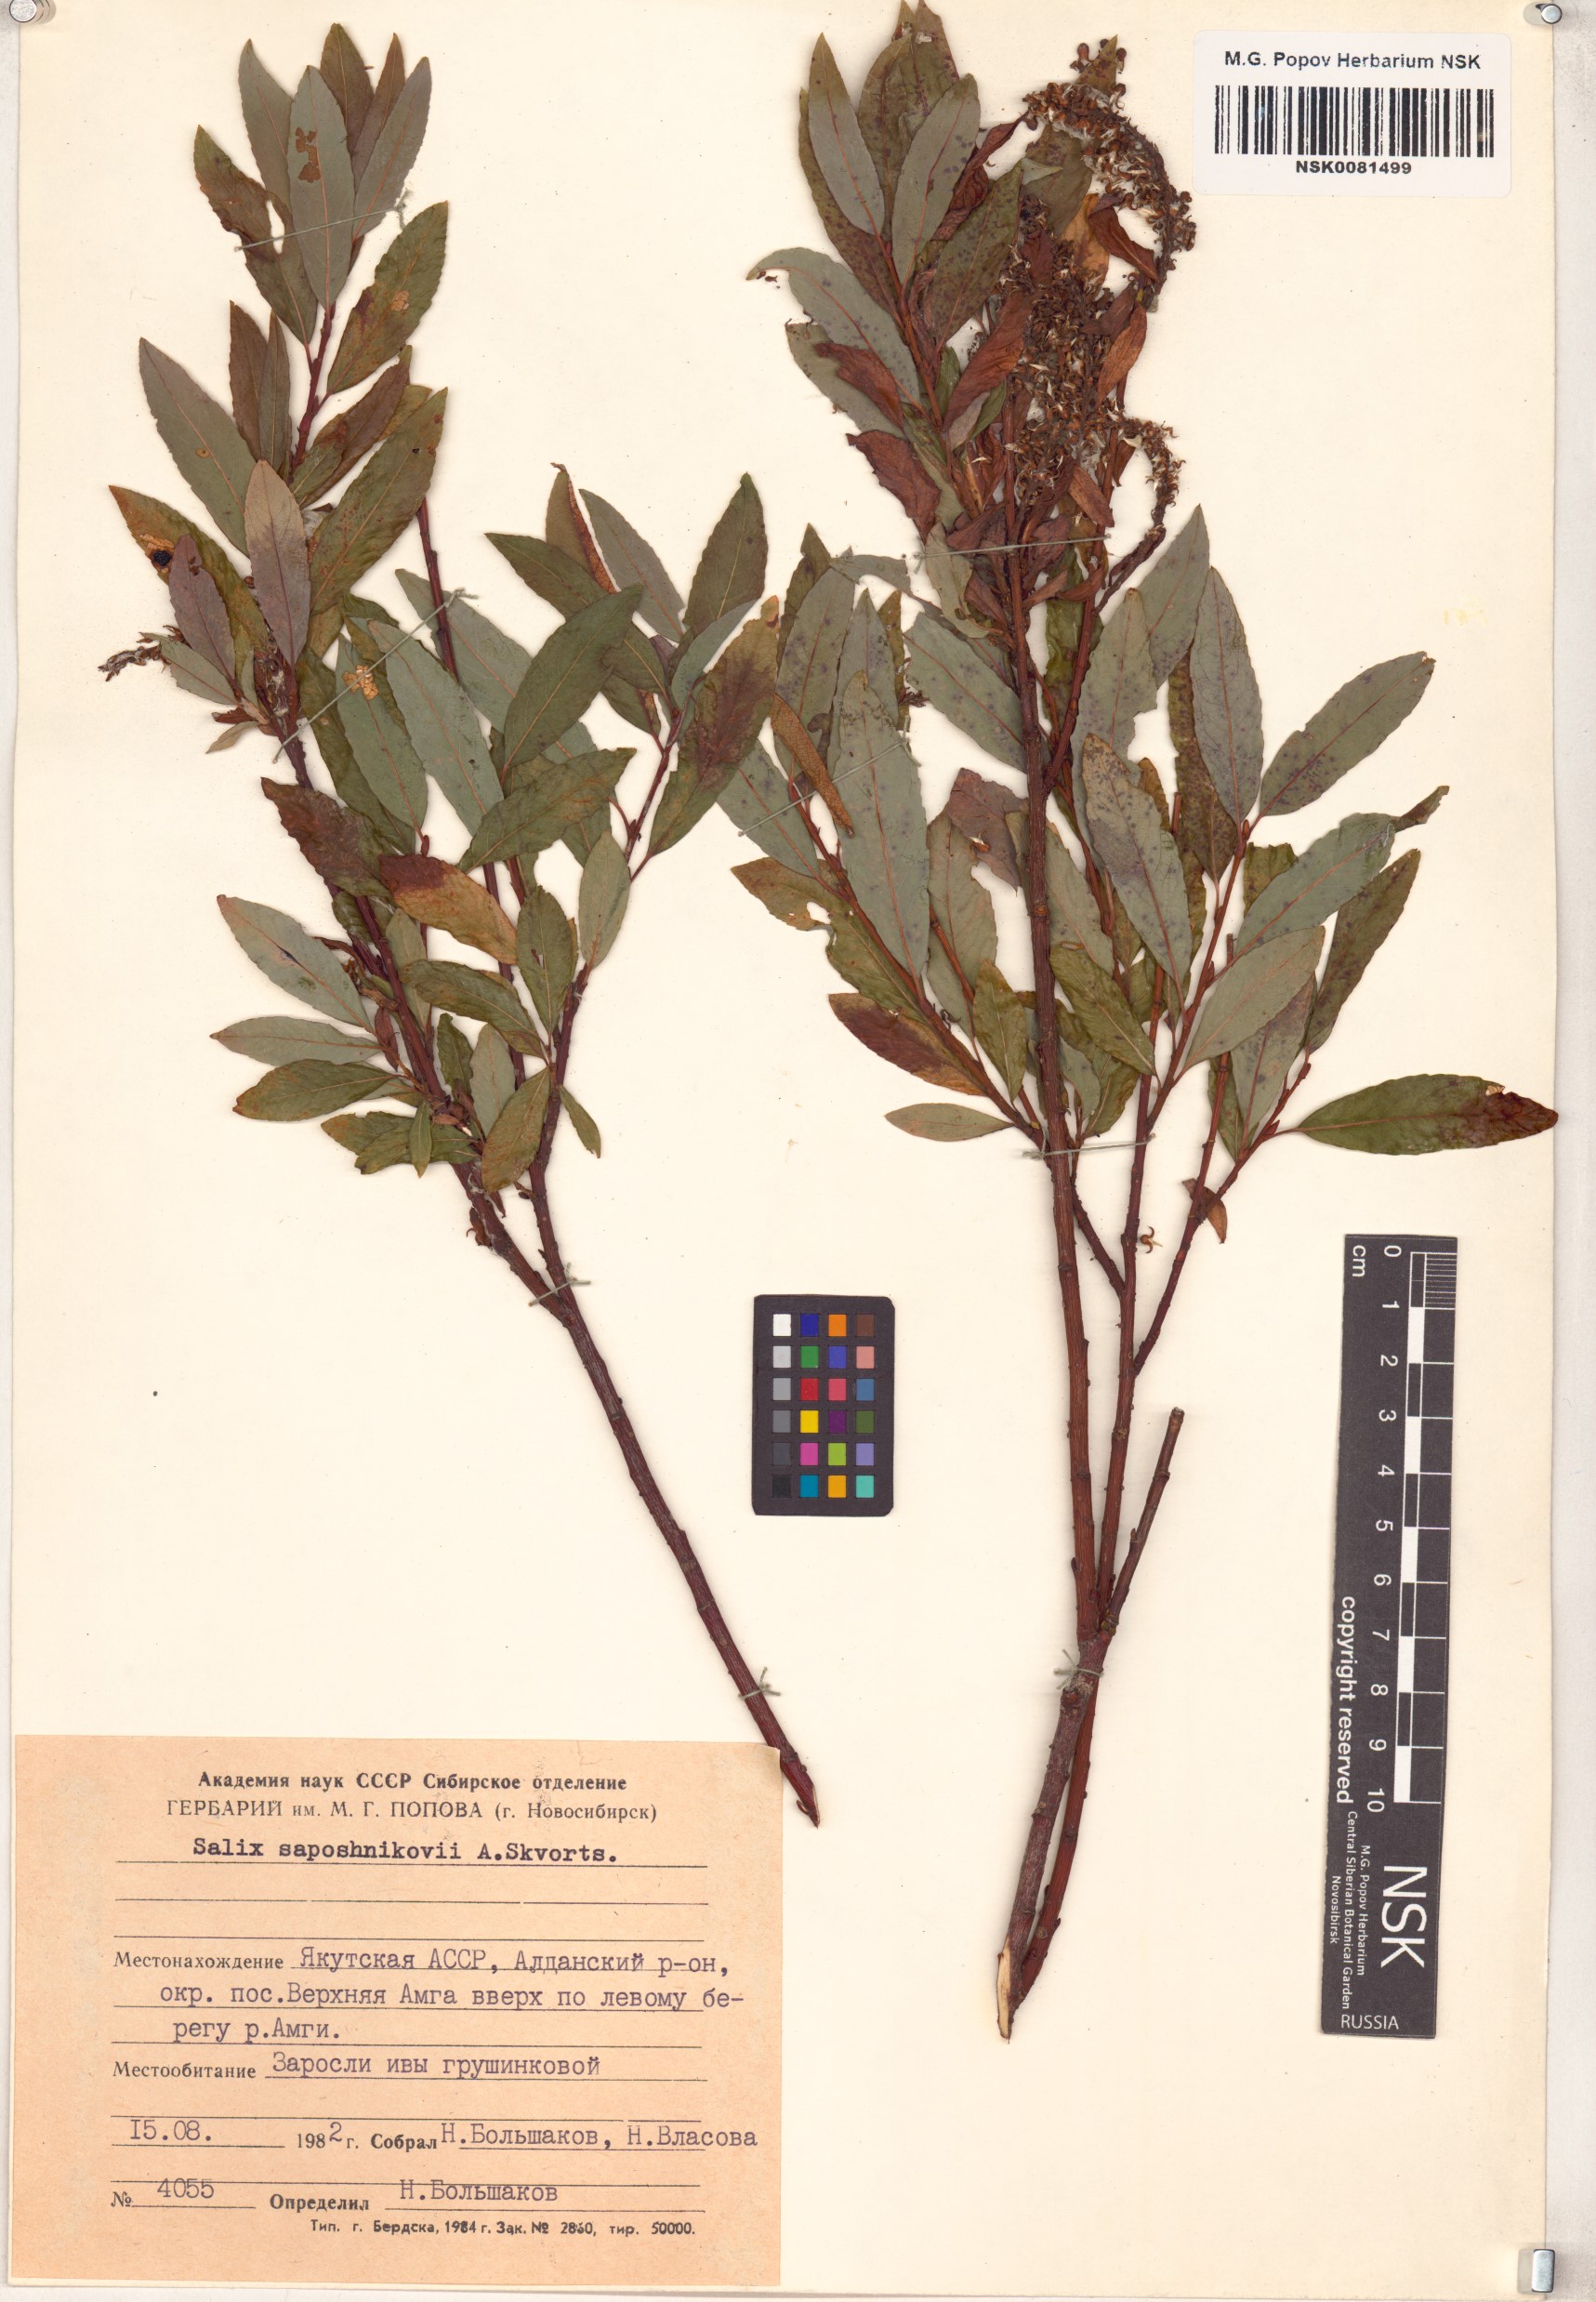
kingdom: Plantae
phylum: Tracheophyta
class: Magnoliopsida
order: Malpighiales
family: Salicaceae
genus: Salix
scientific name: Salix saposhnikovii
